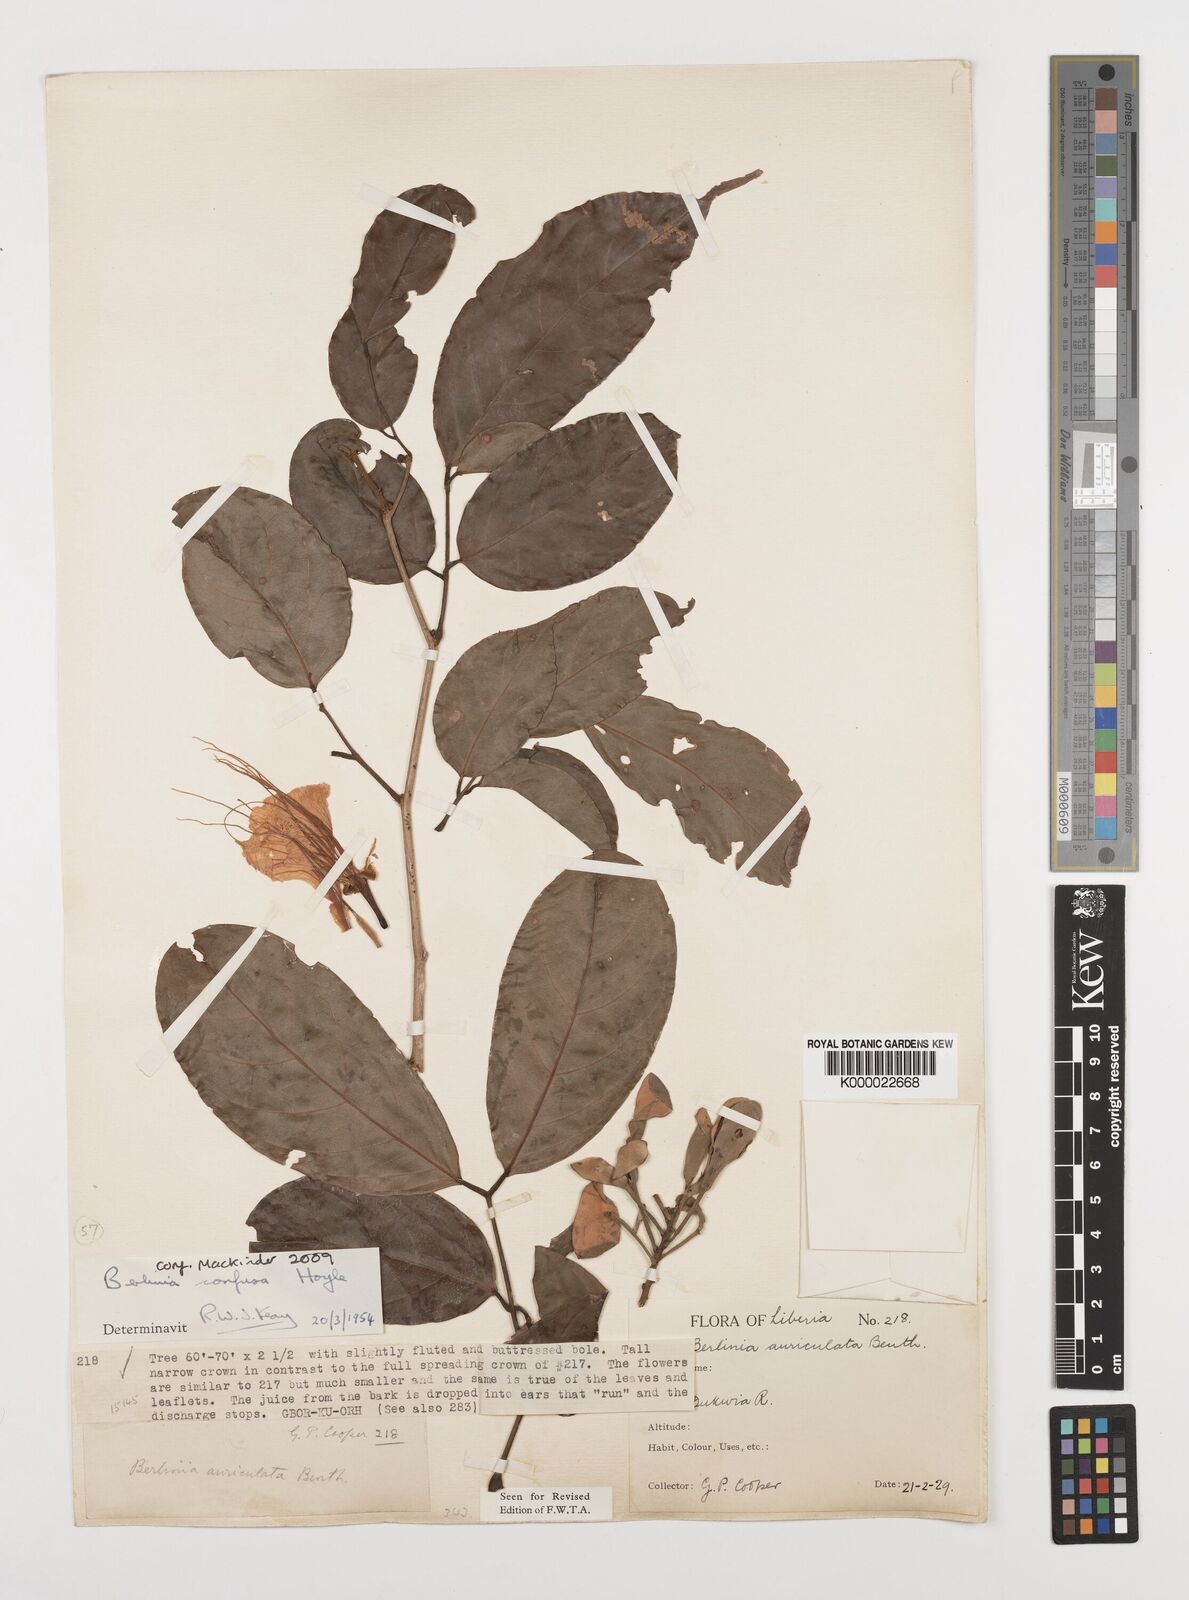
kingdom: Plantae
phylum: Tracheophyta
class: Magnoliopsida
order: Fabales
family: Fabaceae
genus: Berlinia
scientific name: Berlinia confusa
